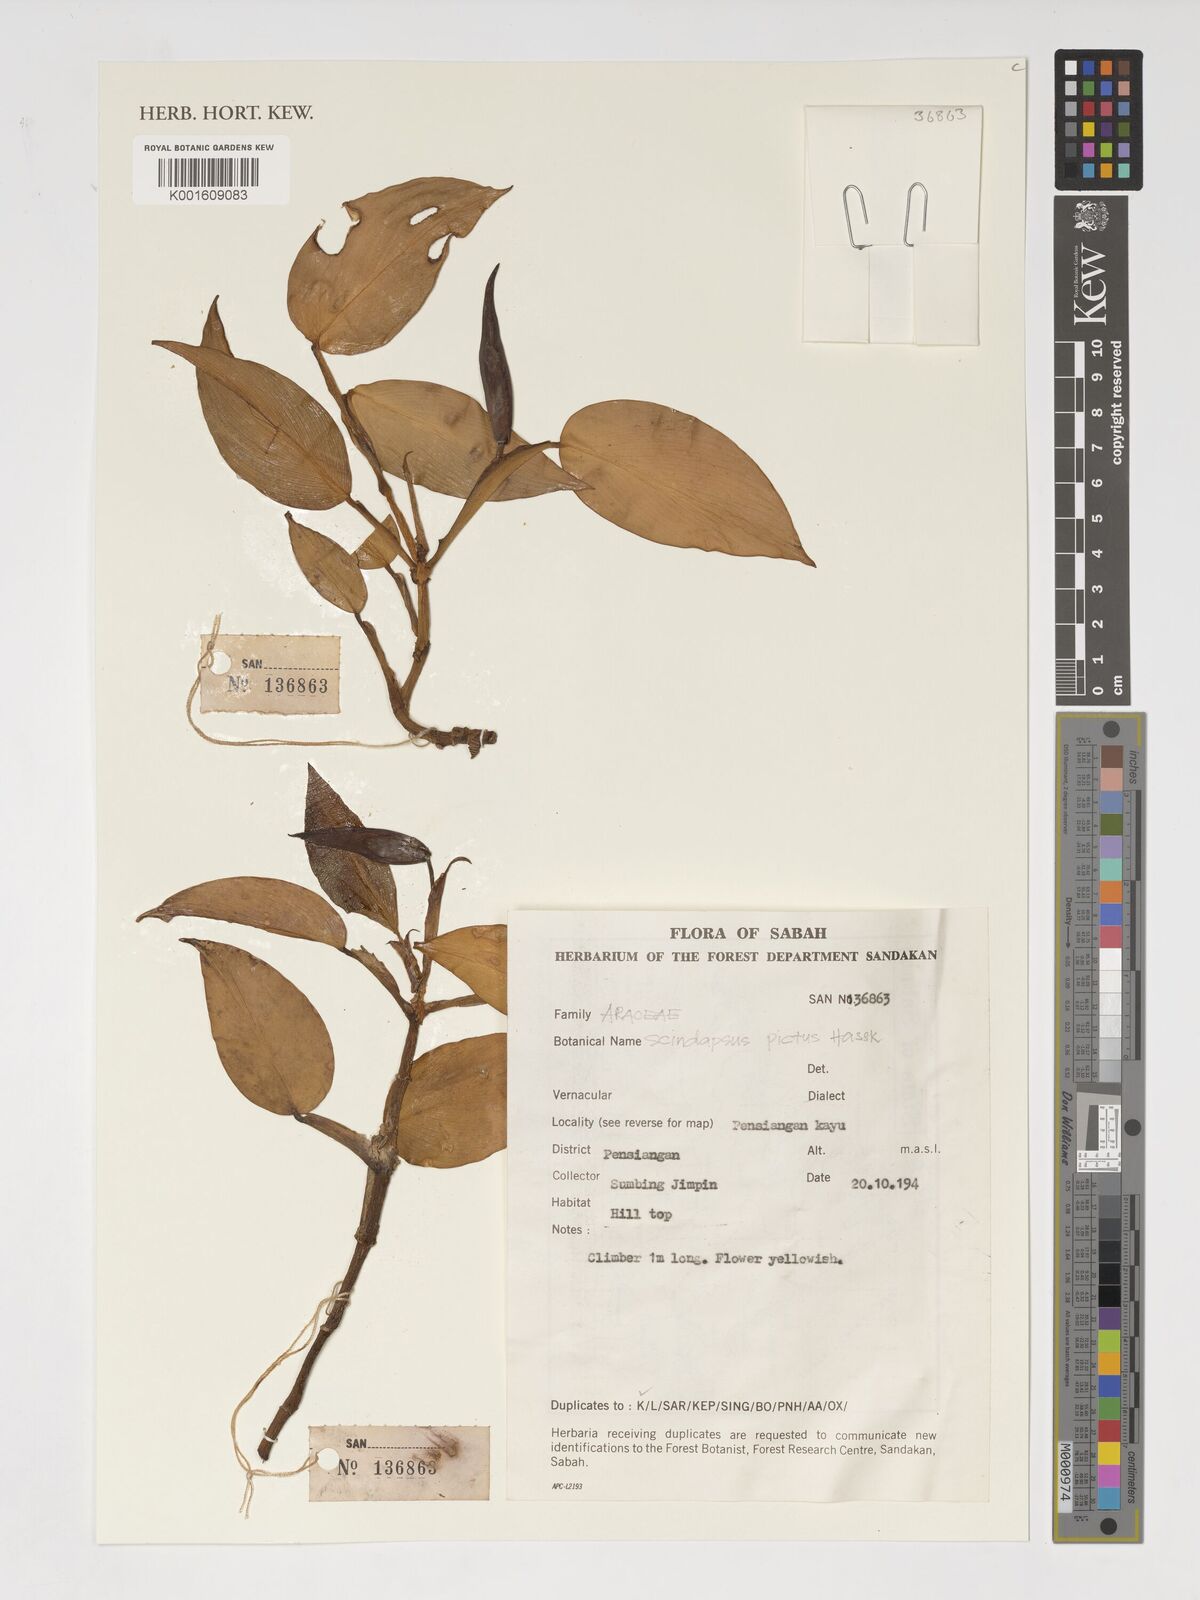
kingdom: Plantae
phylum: Tracheophyta
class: Liliopsida
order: Alismatales
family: Araceae
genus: Scindapsus
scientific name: Scindapsus pictus
